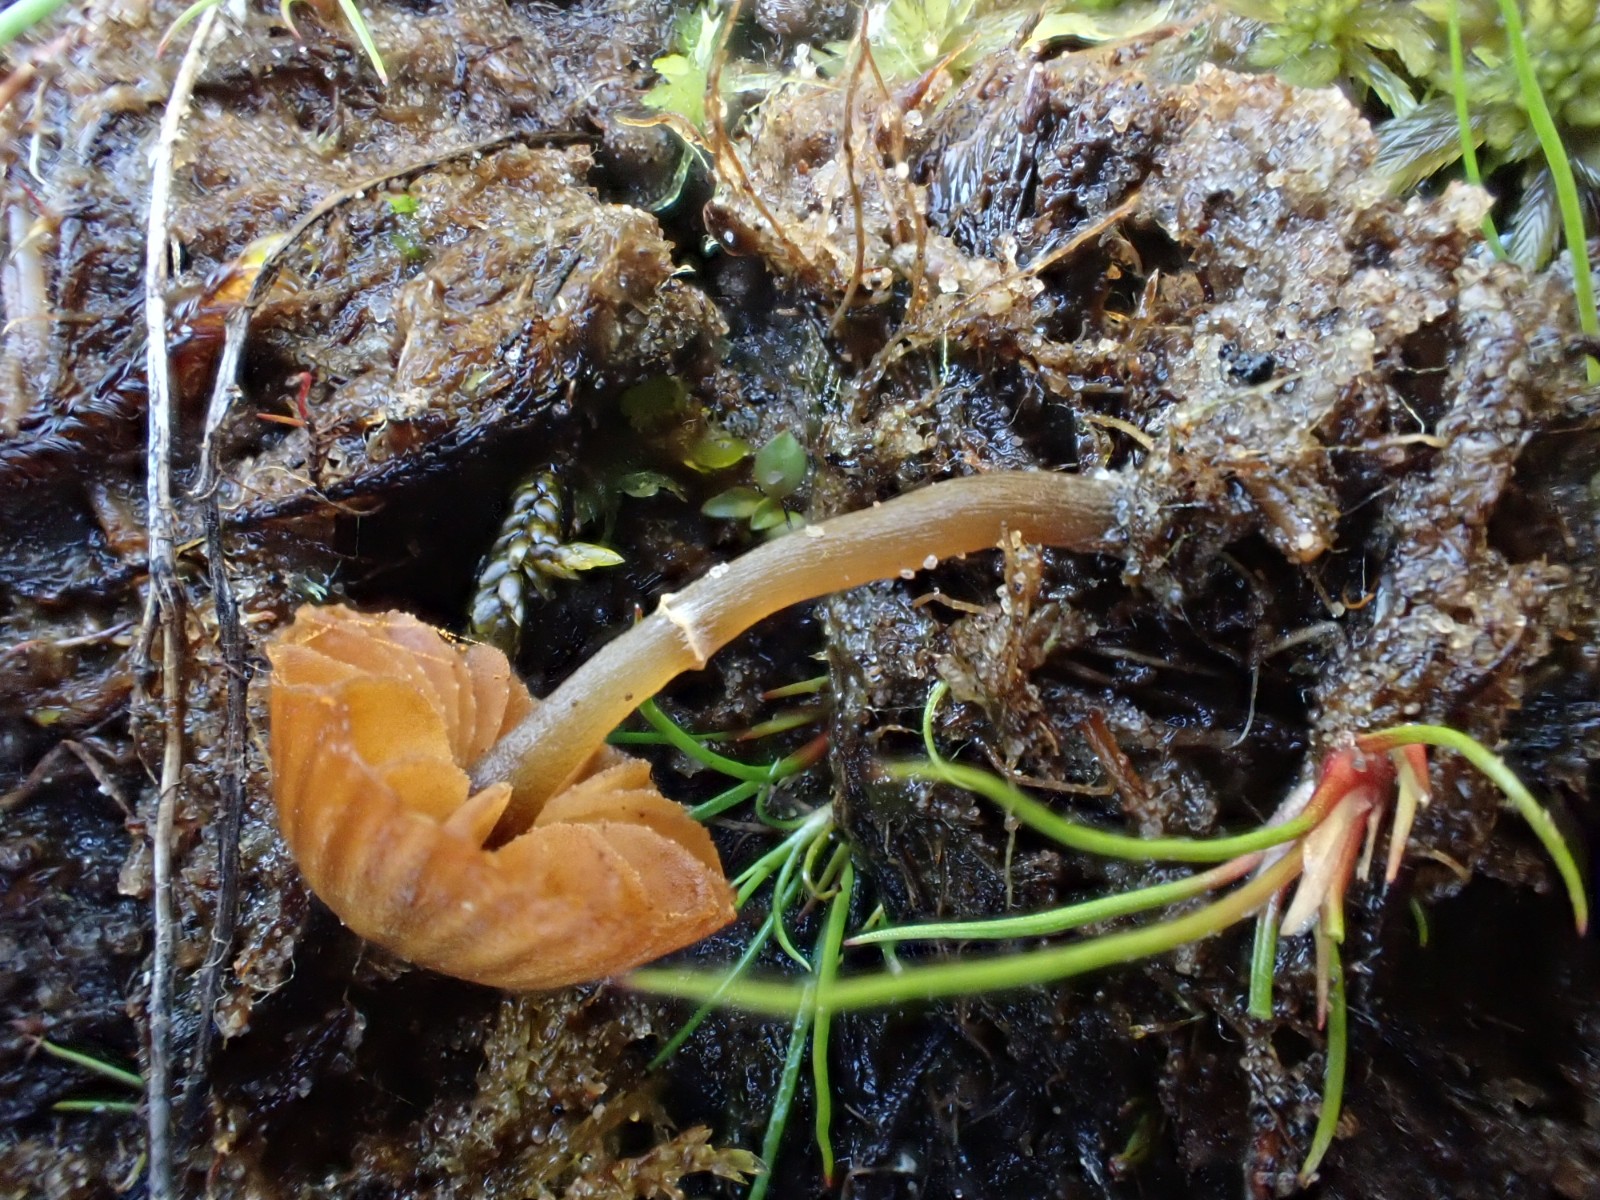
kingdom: Fungi
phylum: Basidiomycota
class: Agaricomycetes
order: Agaricales
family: Hymenogastraceae
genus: Galerina
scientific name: Galerina jaapii
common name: hvidbæltet hjelmhat
